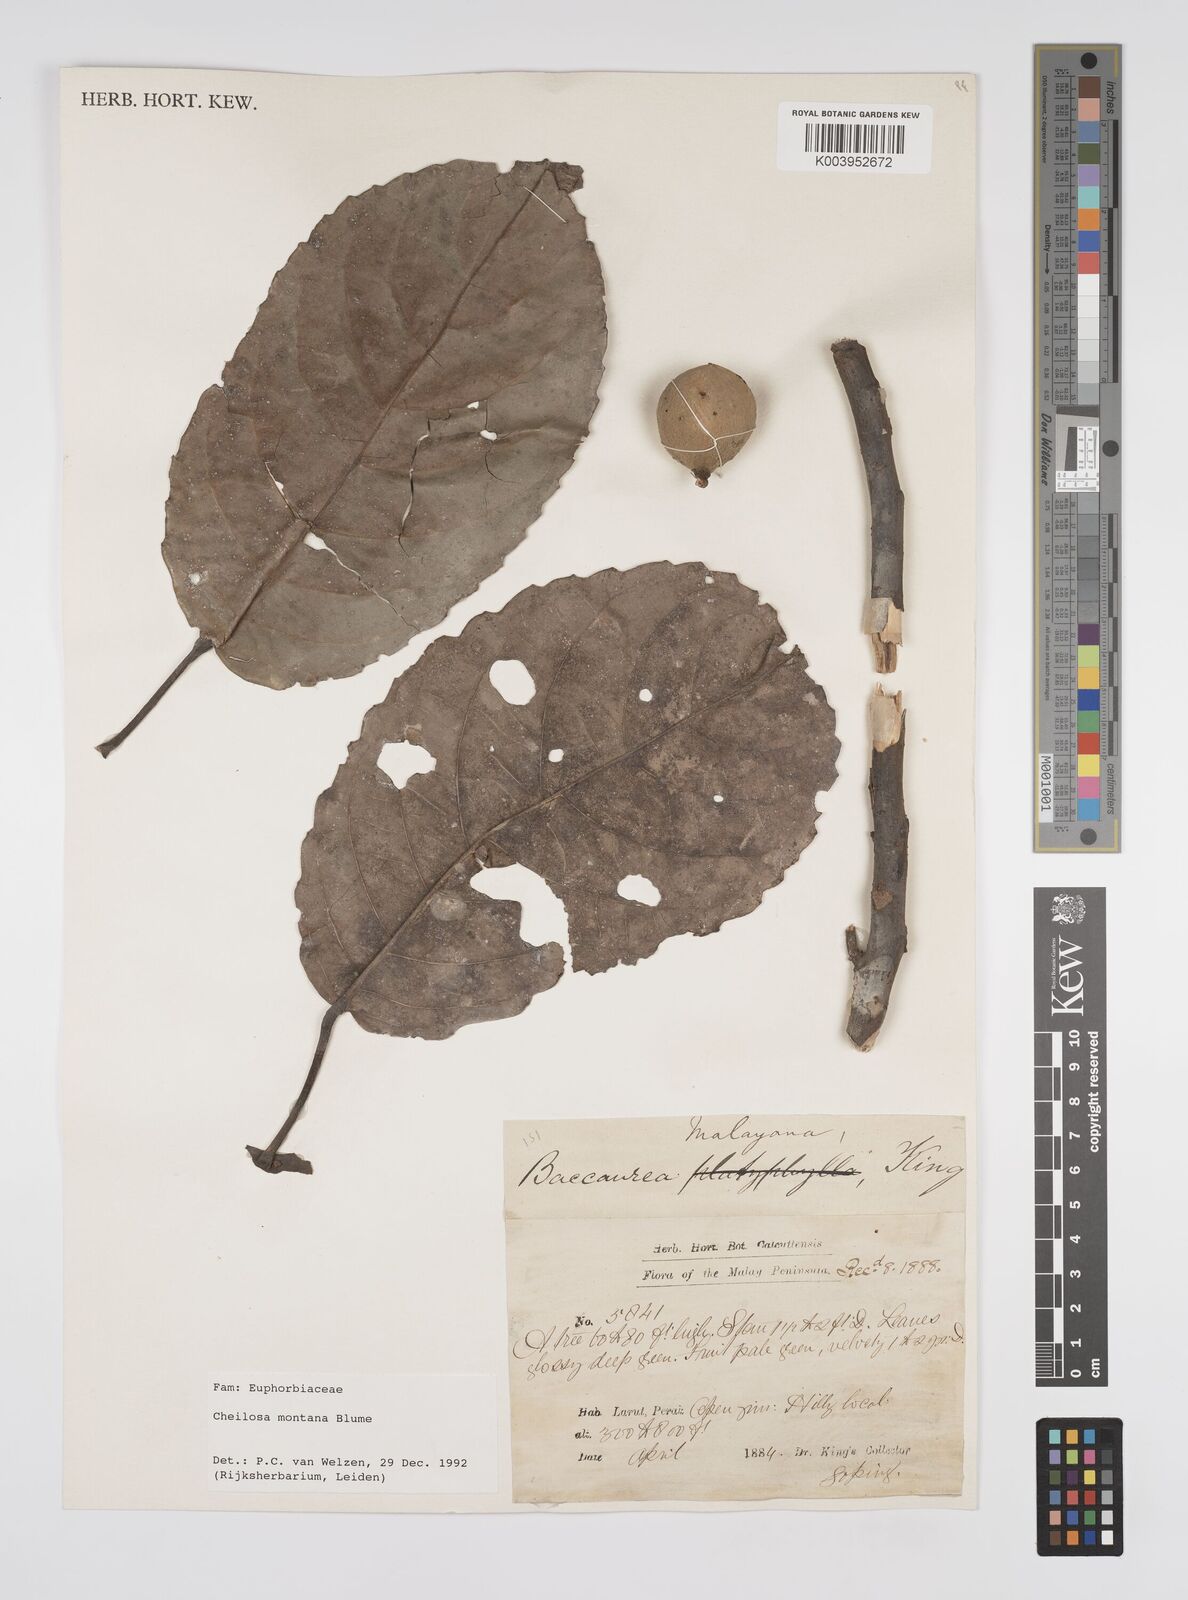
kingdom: Plantae
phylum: Tracheophyta
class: Magnoliopsida
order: Malpighiales
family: Euphorbiaceae
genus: Cheilosa
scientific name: Cheilosa montana
